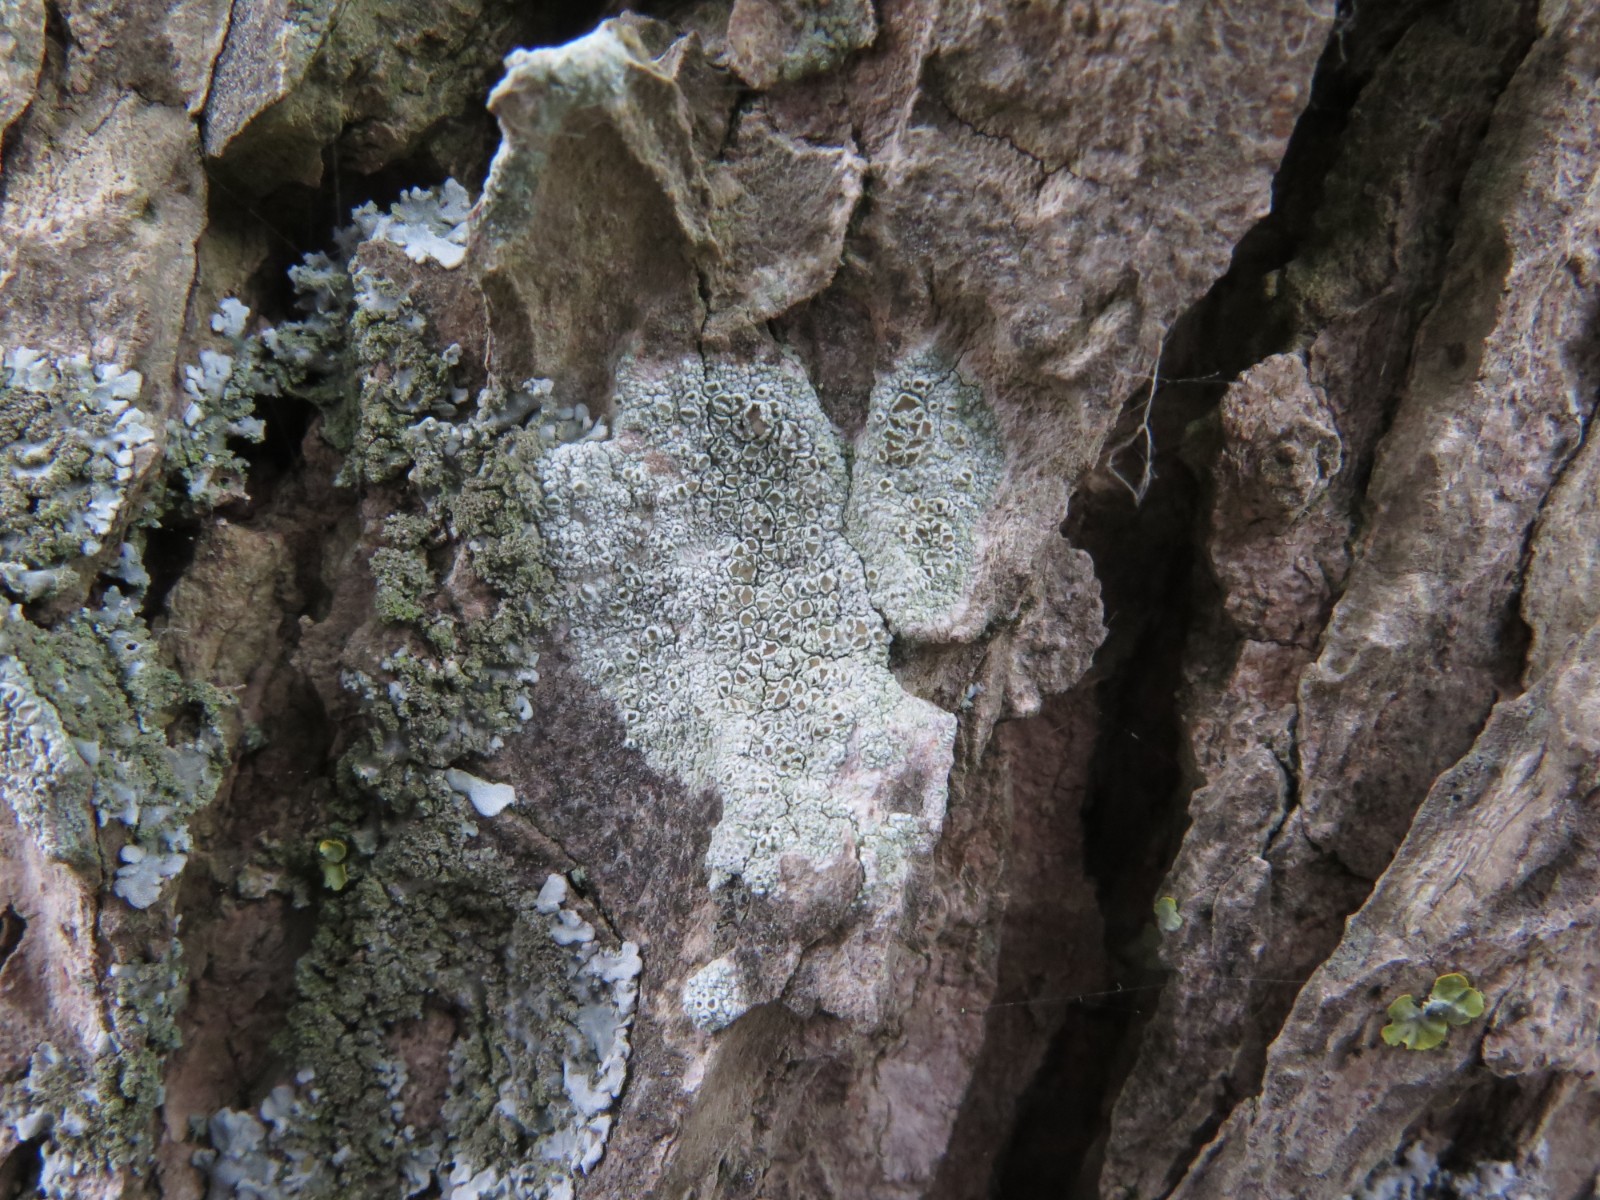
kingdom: Fungi
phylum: Ascomycota
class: Lecanoromycetes
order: Lecanorales
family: Lecanoraceae
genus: Lecanora
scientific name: Lecanora chlarotera
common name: brun kantskivelav
